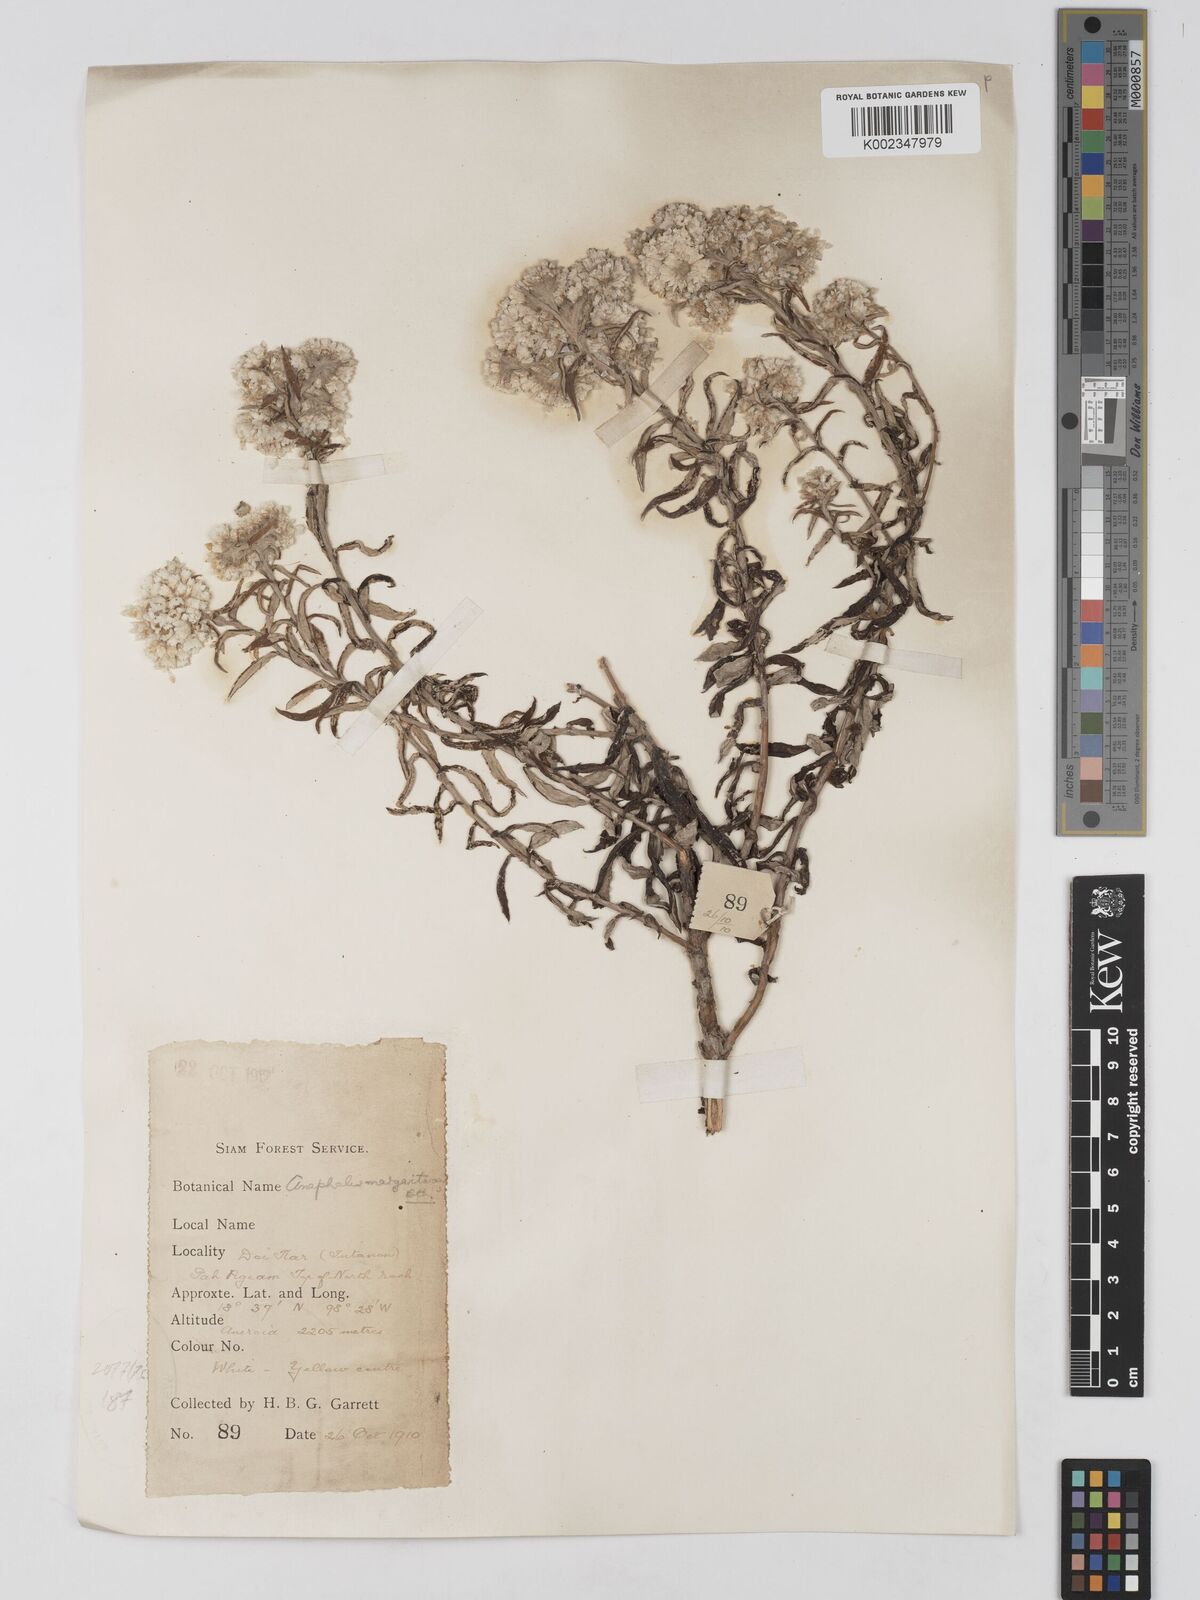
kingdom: Plantae
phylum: Tracheophyta
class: Magnoliopsida
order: Asterales
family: Asteraceae
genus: Anaphalis
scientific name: Anaphalis margaritacea
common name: Pearly everlasting
